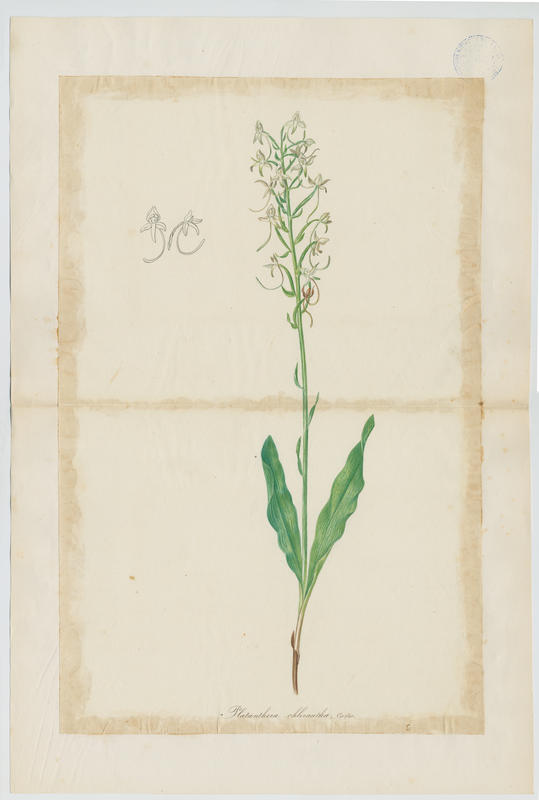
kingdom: Plantae
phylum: Tracheophyta
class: Liliopsida
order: Asparagales
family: Orchidaceae
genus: Platanthera
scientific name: Platanthera chlorantha
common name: Greater butterfly-orchid
